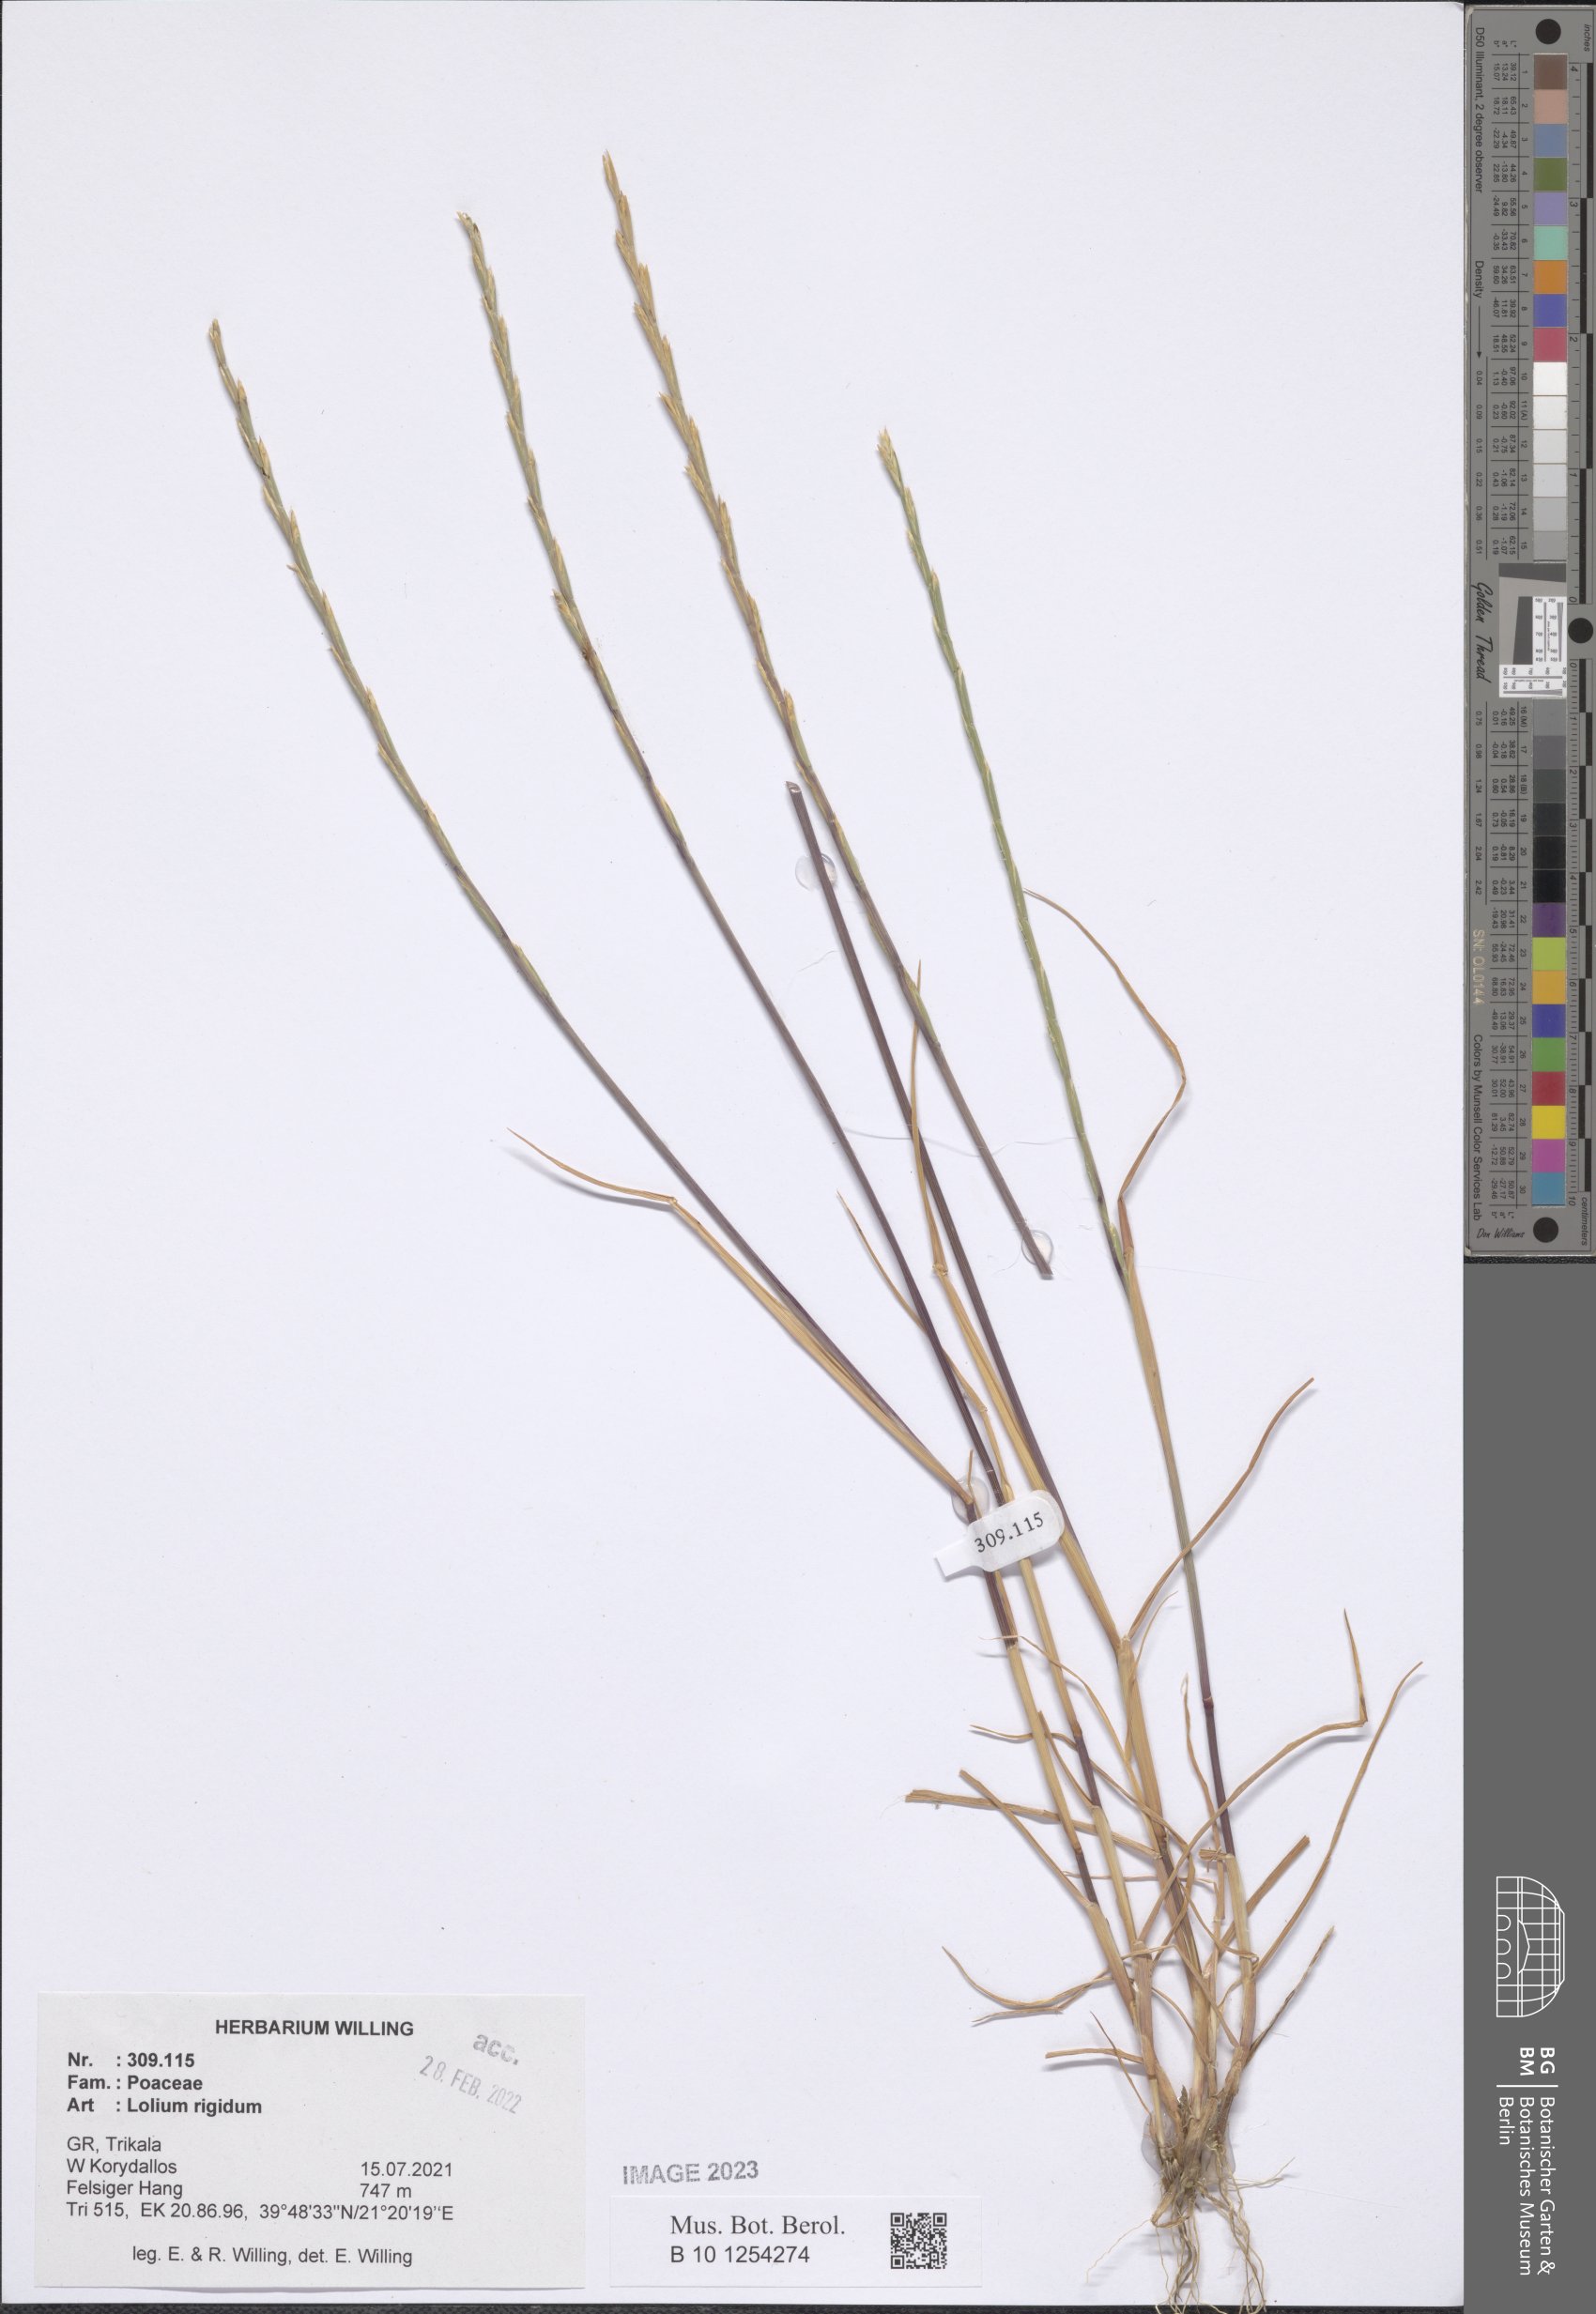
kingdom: Plantae
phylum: Tracheophyta
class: Liliopsida
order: Poales
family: Poaceae
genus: Lolium
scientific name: Lolium rigidum
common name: Wimmera ryegrass
